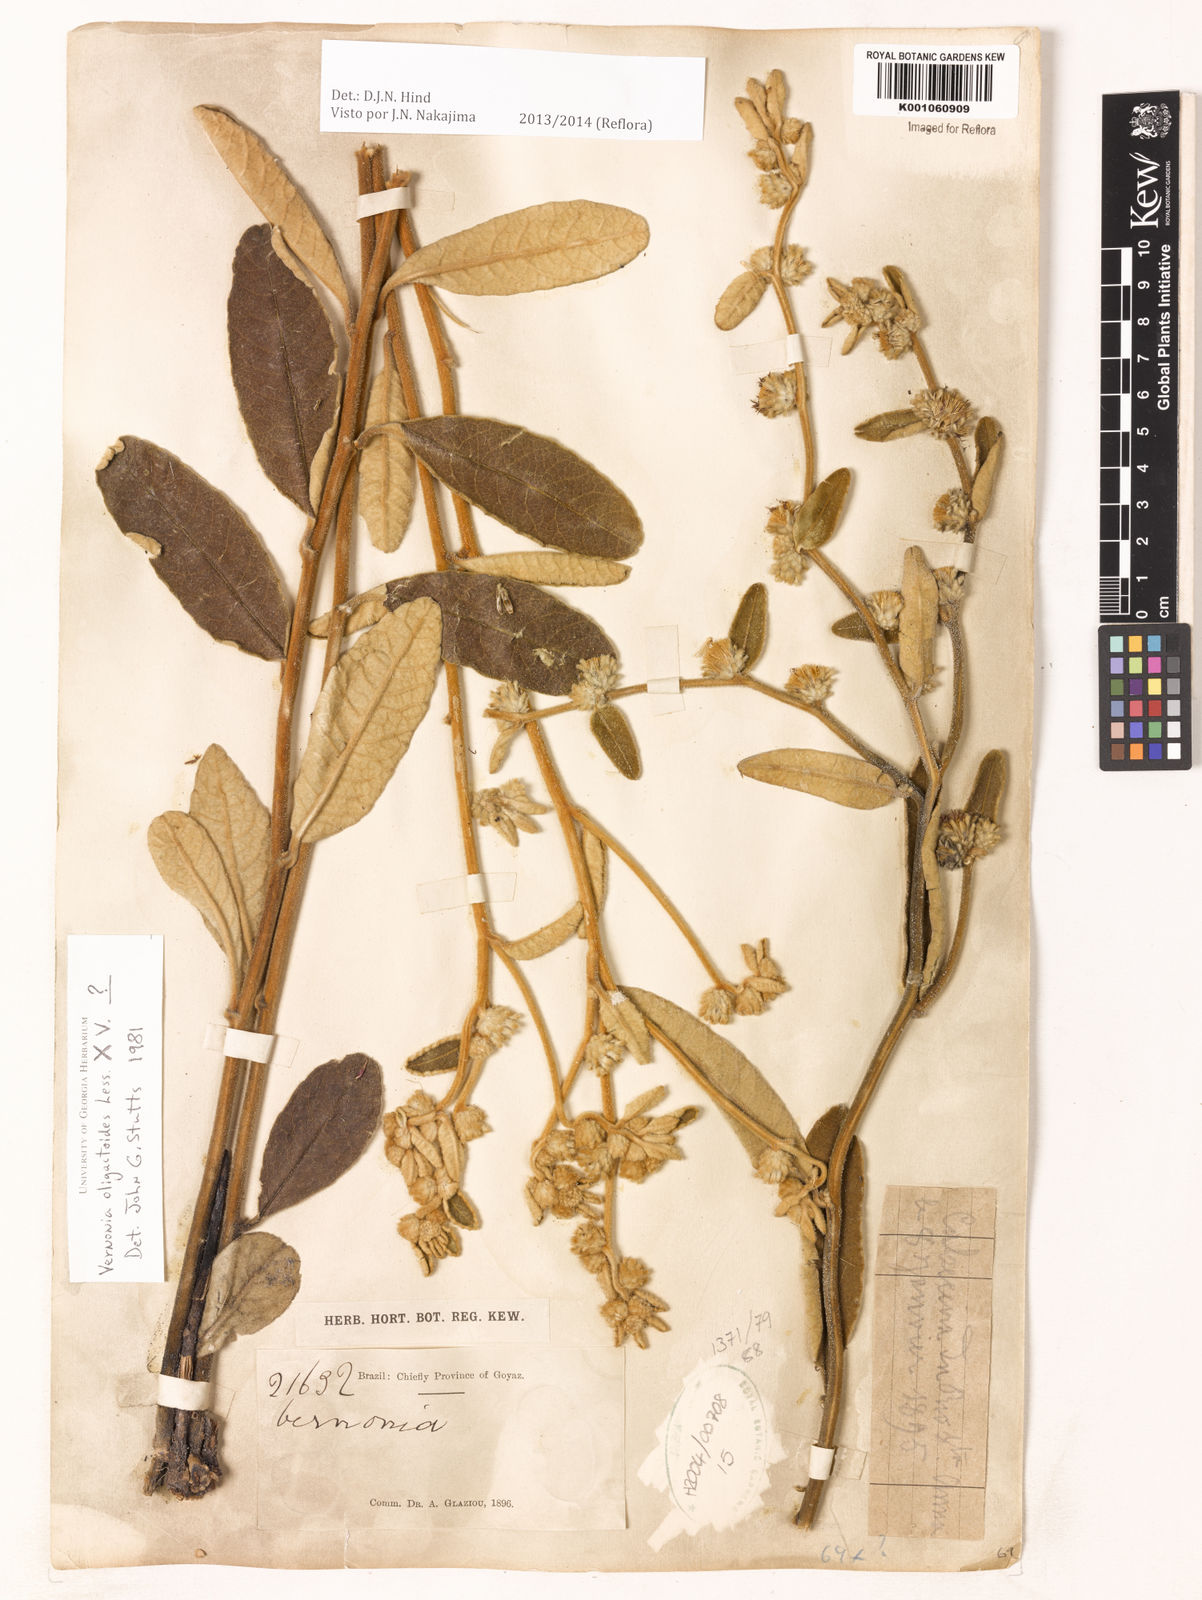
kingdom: Plantae
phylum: Tracheophyta
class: Magnoliopsida
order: Asterales
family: Asteraceae
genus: Vernonanthura
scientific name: Vernonanthura oligactoides
